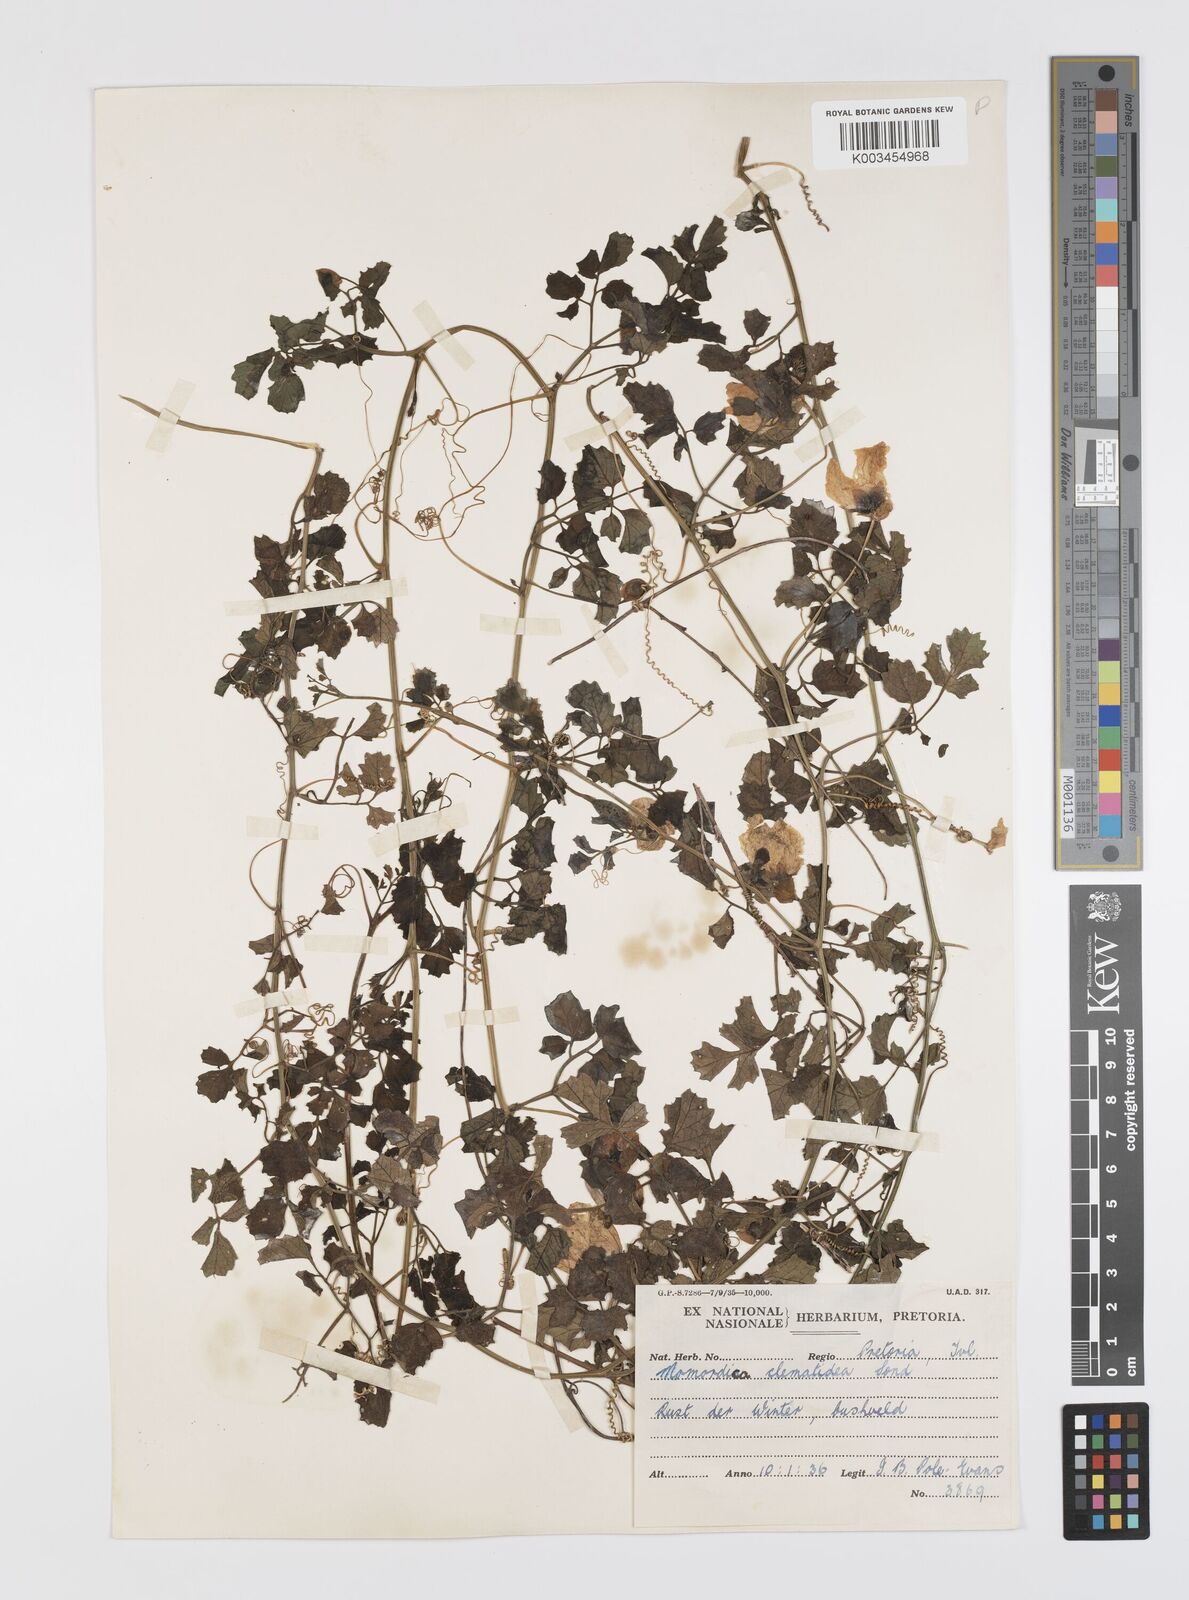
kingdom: Plantae
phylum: Tracheophyta
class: Magnoliopsida
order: Cucurbitales
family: Cucurbitaceae
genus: Momordica
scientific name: Momordica cardiospermoides
